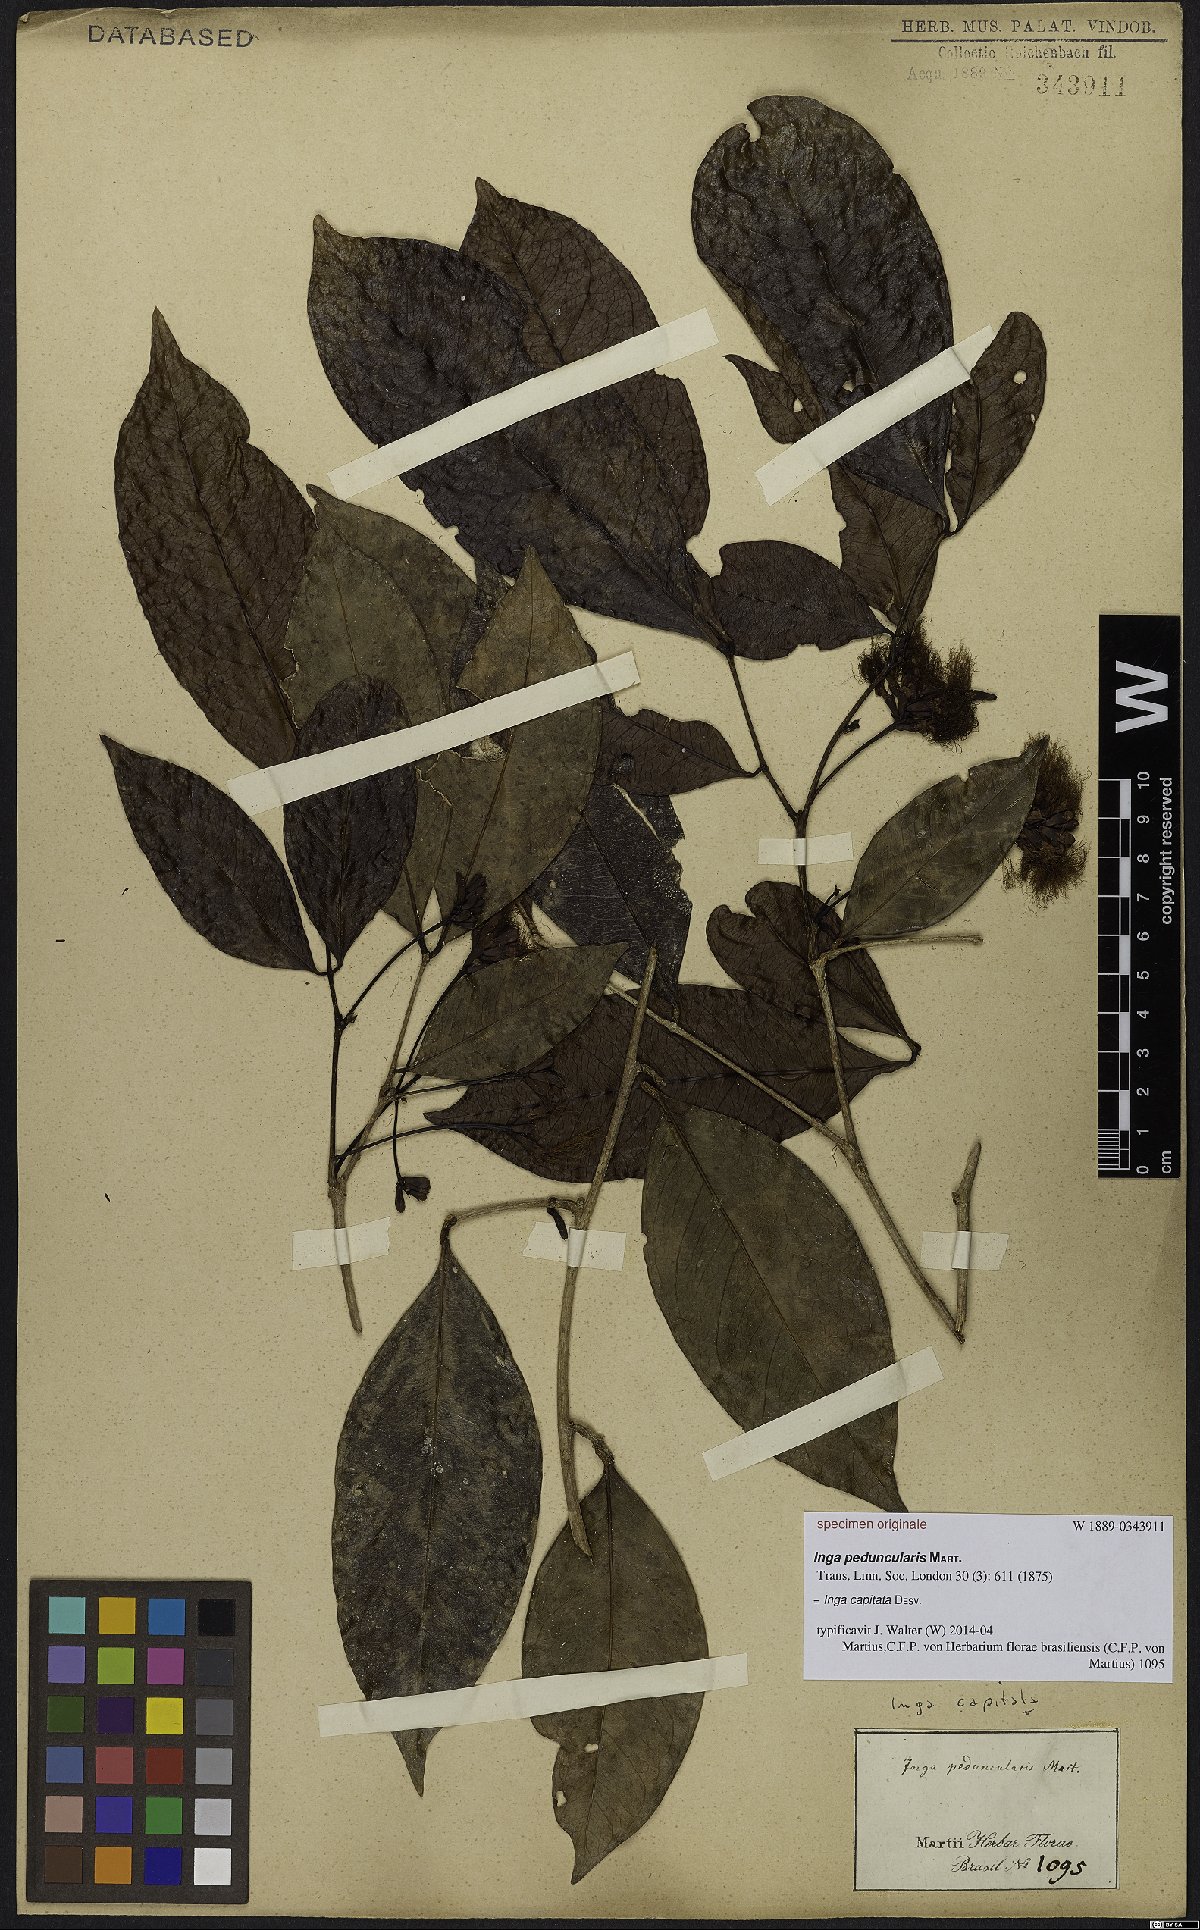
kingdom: Plantae
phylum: Tracheophyta
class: Magnoliopsida
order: Fabales
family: Fabaceae
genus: Inga
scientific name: Inga capitata
